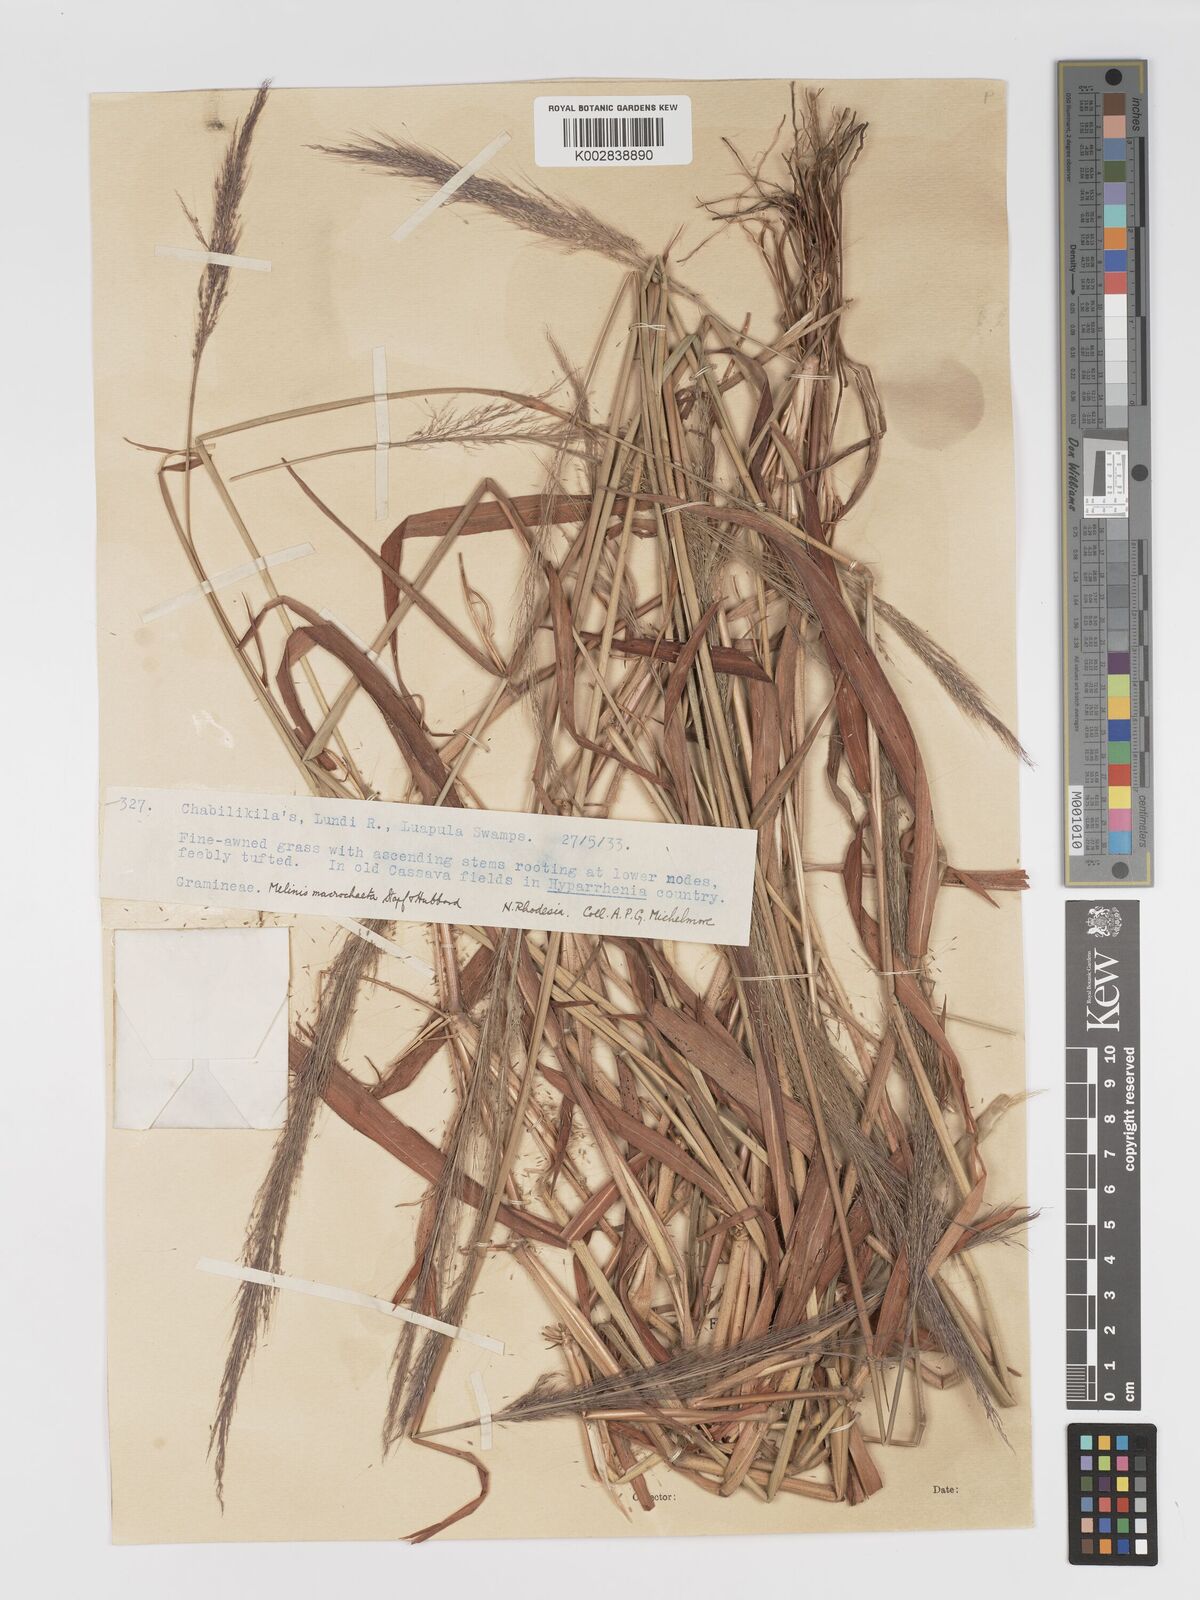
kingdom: Plantae
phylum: Tracheophyta
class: Liliopsida
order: Poales
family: Poaceae
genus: Melinis
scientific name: Melinis macrochaeta
